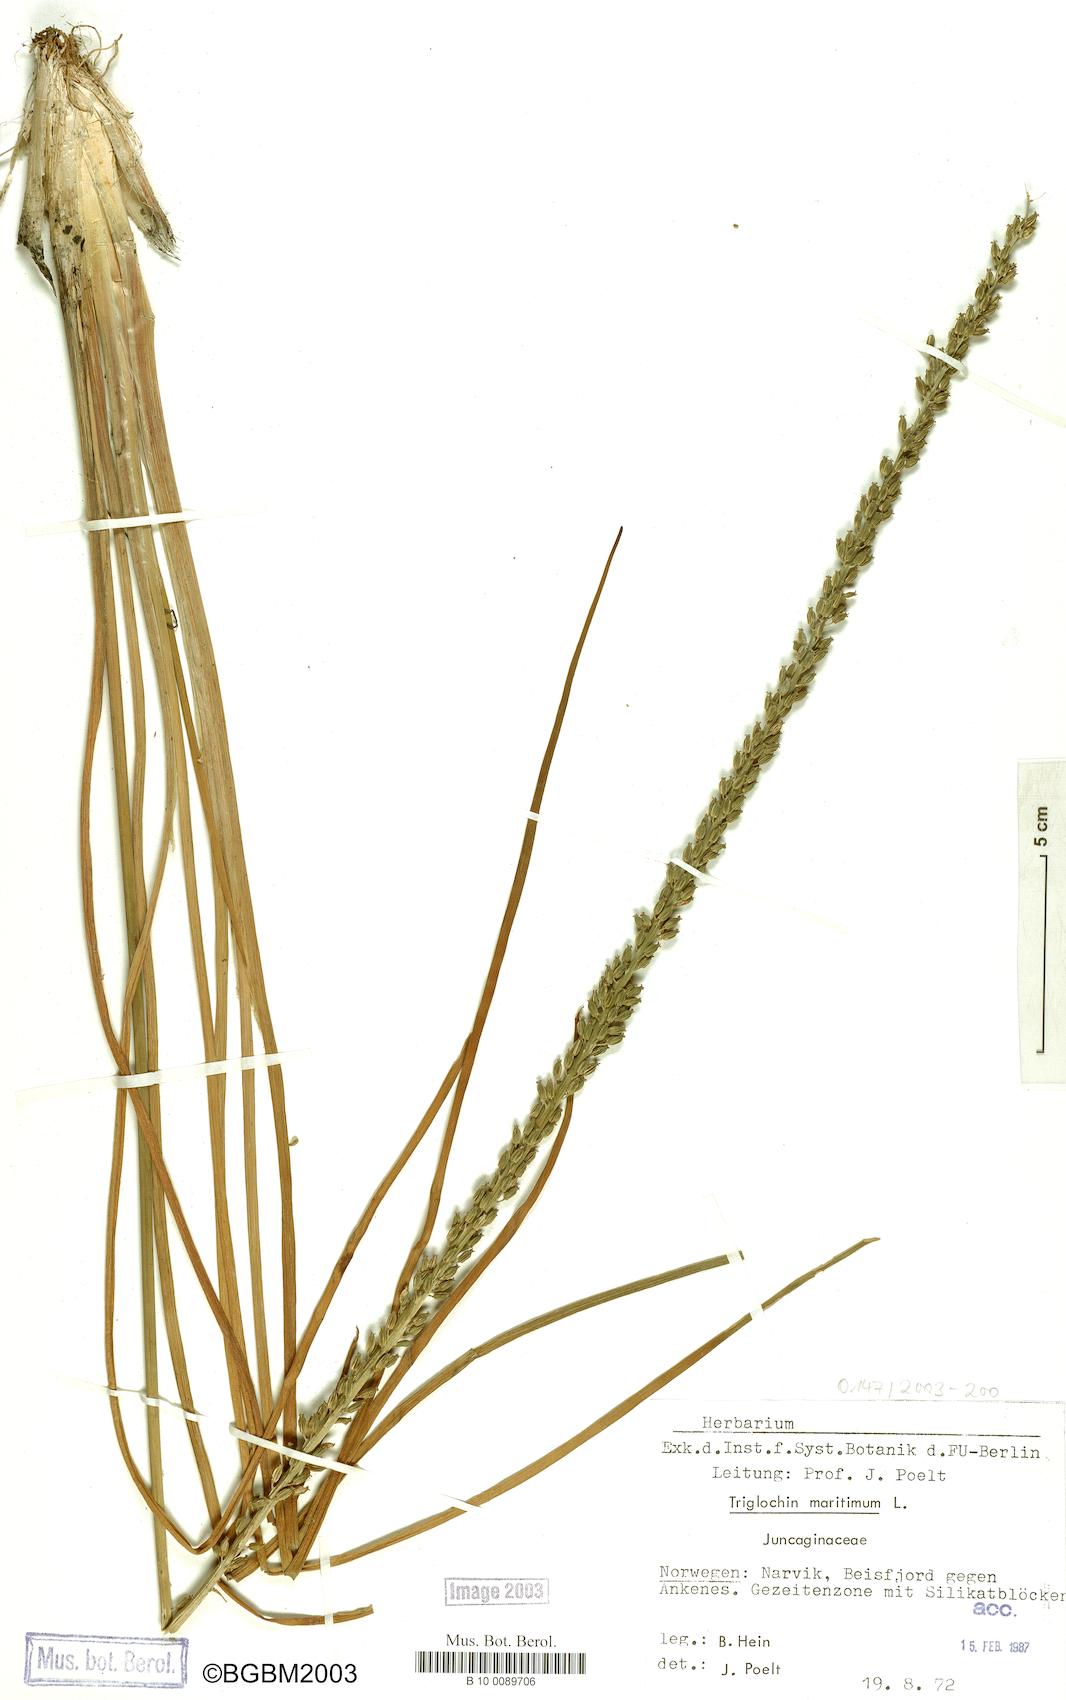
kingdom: Plantae
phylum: Tracheophyta
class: Liliopsida
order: Alismatales
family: Juncaginaceae
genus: Triglochin
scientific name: Triglochin maritima
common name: Sea arrowgrass
